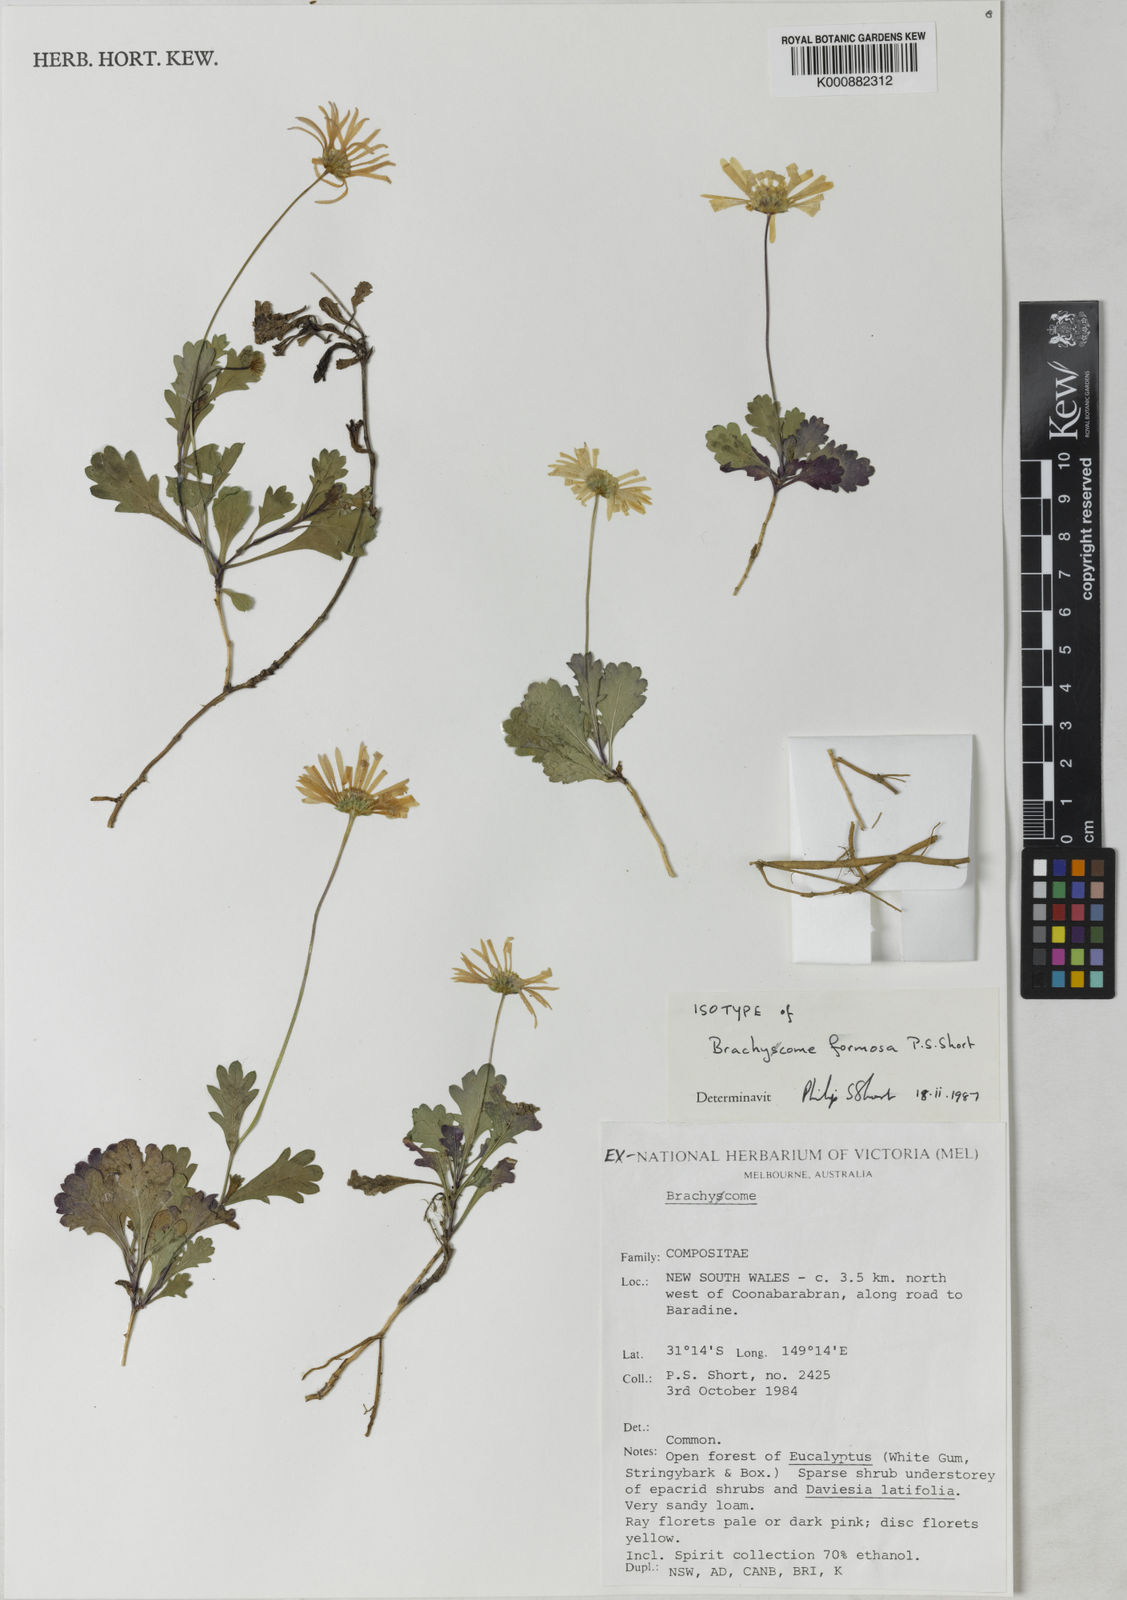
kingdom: Plantae
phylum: Tracheophyta
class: Magnoliopsida
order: Asterales
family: Asteraceae
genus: Brachyscome
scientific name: Brachyscome formosa
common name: Pilliga posy
